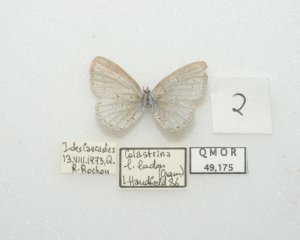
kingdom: Animalia
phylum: Arthropoda
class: Insecta
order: Lepidoptera
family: Lycaenidae
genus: Cyaniris
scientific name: Cyaniris neglecta
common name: Summer Azure
